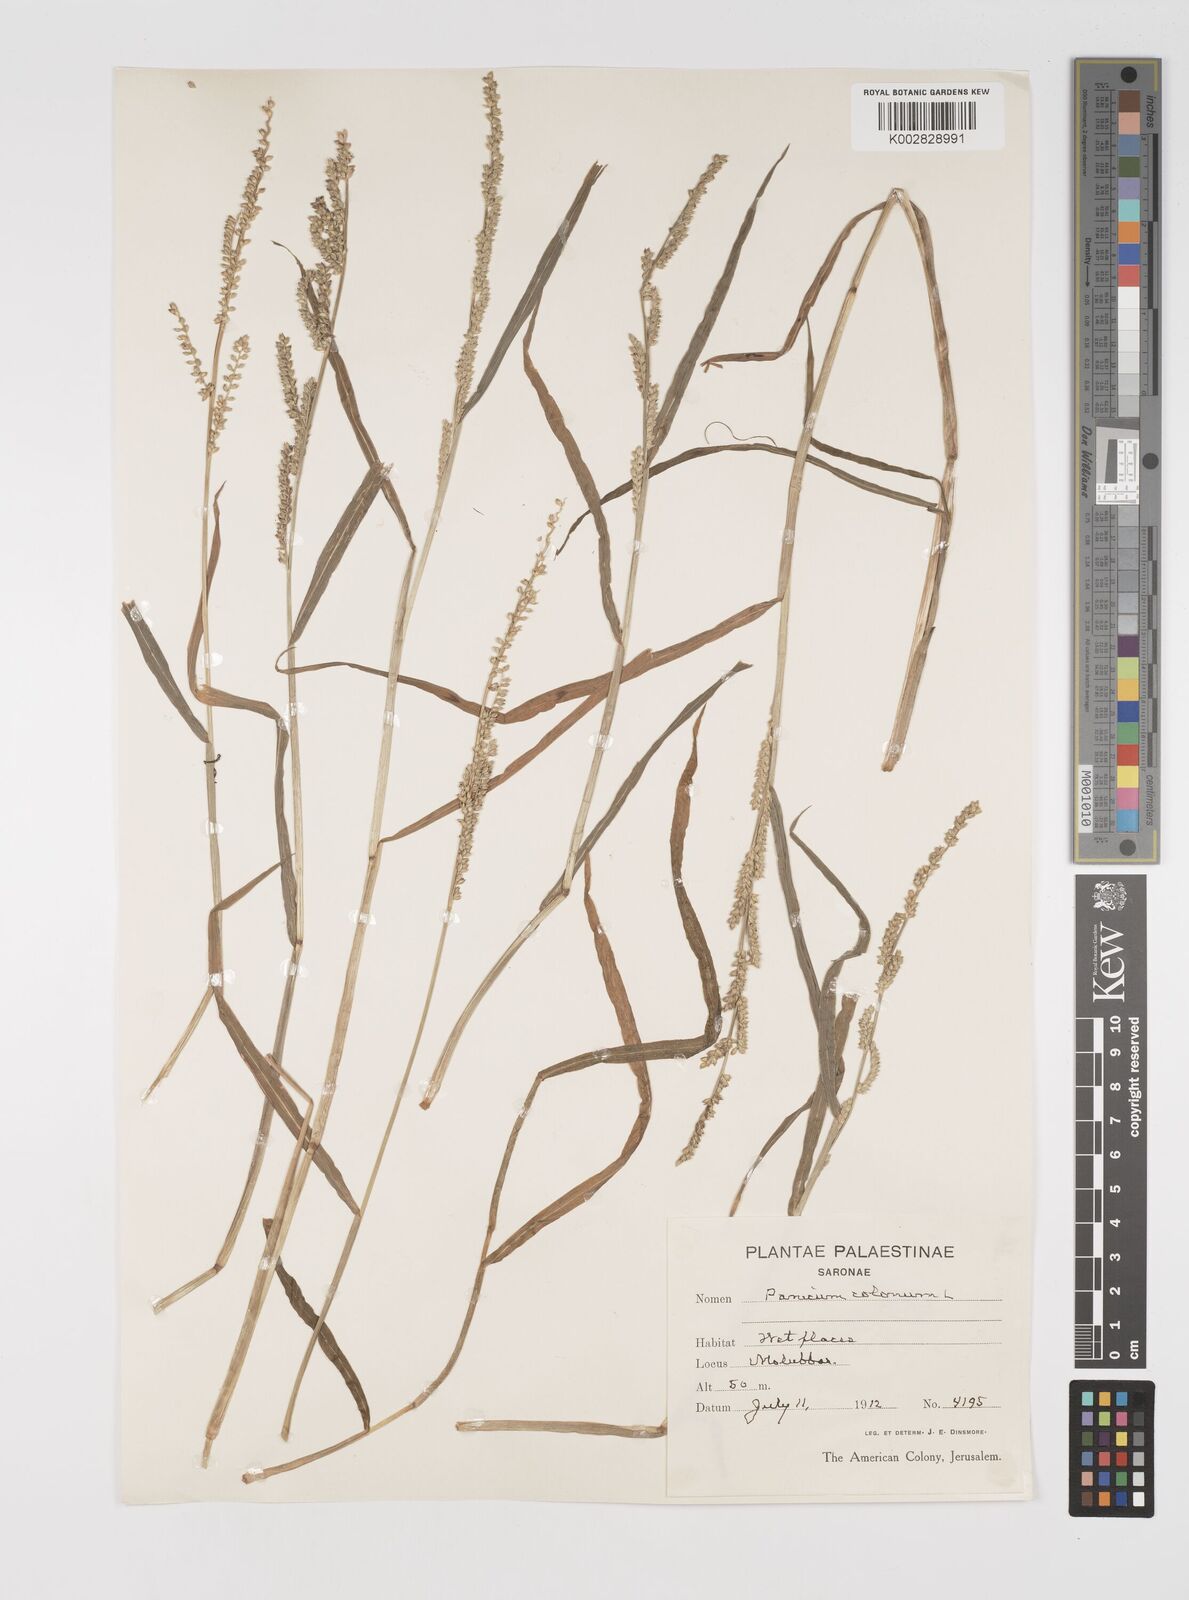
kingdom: Plantae
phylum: Tracheophyta
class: Liliopsida
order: Poales
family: Poaceae
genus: Echinochloa
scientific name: Echinochloa colonum
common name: Jungle rice
